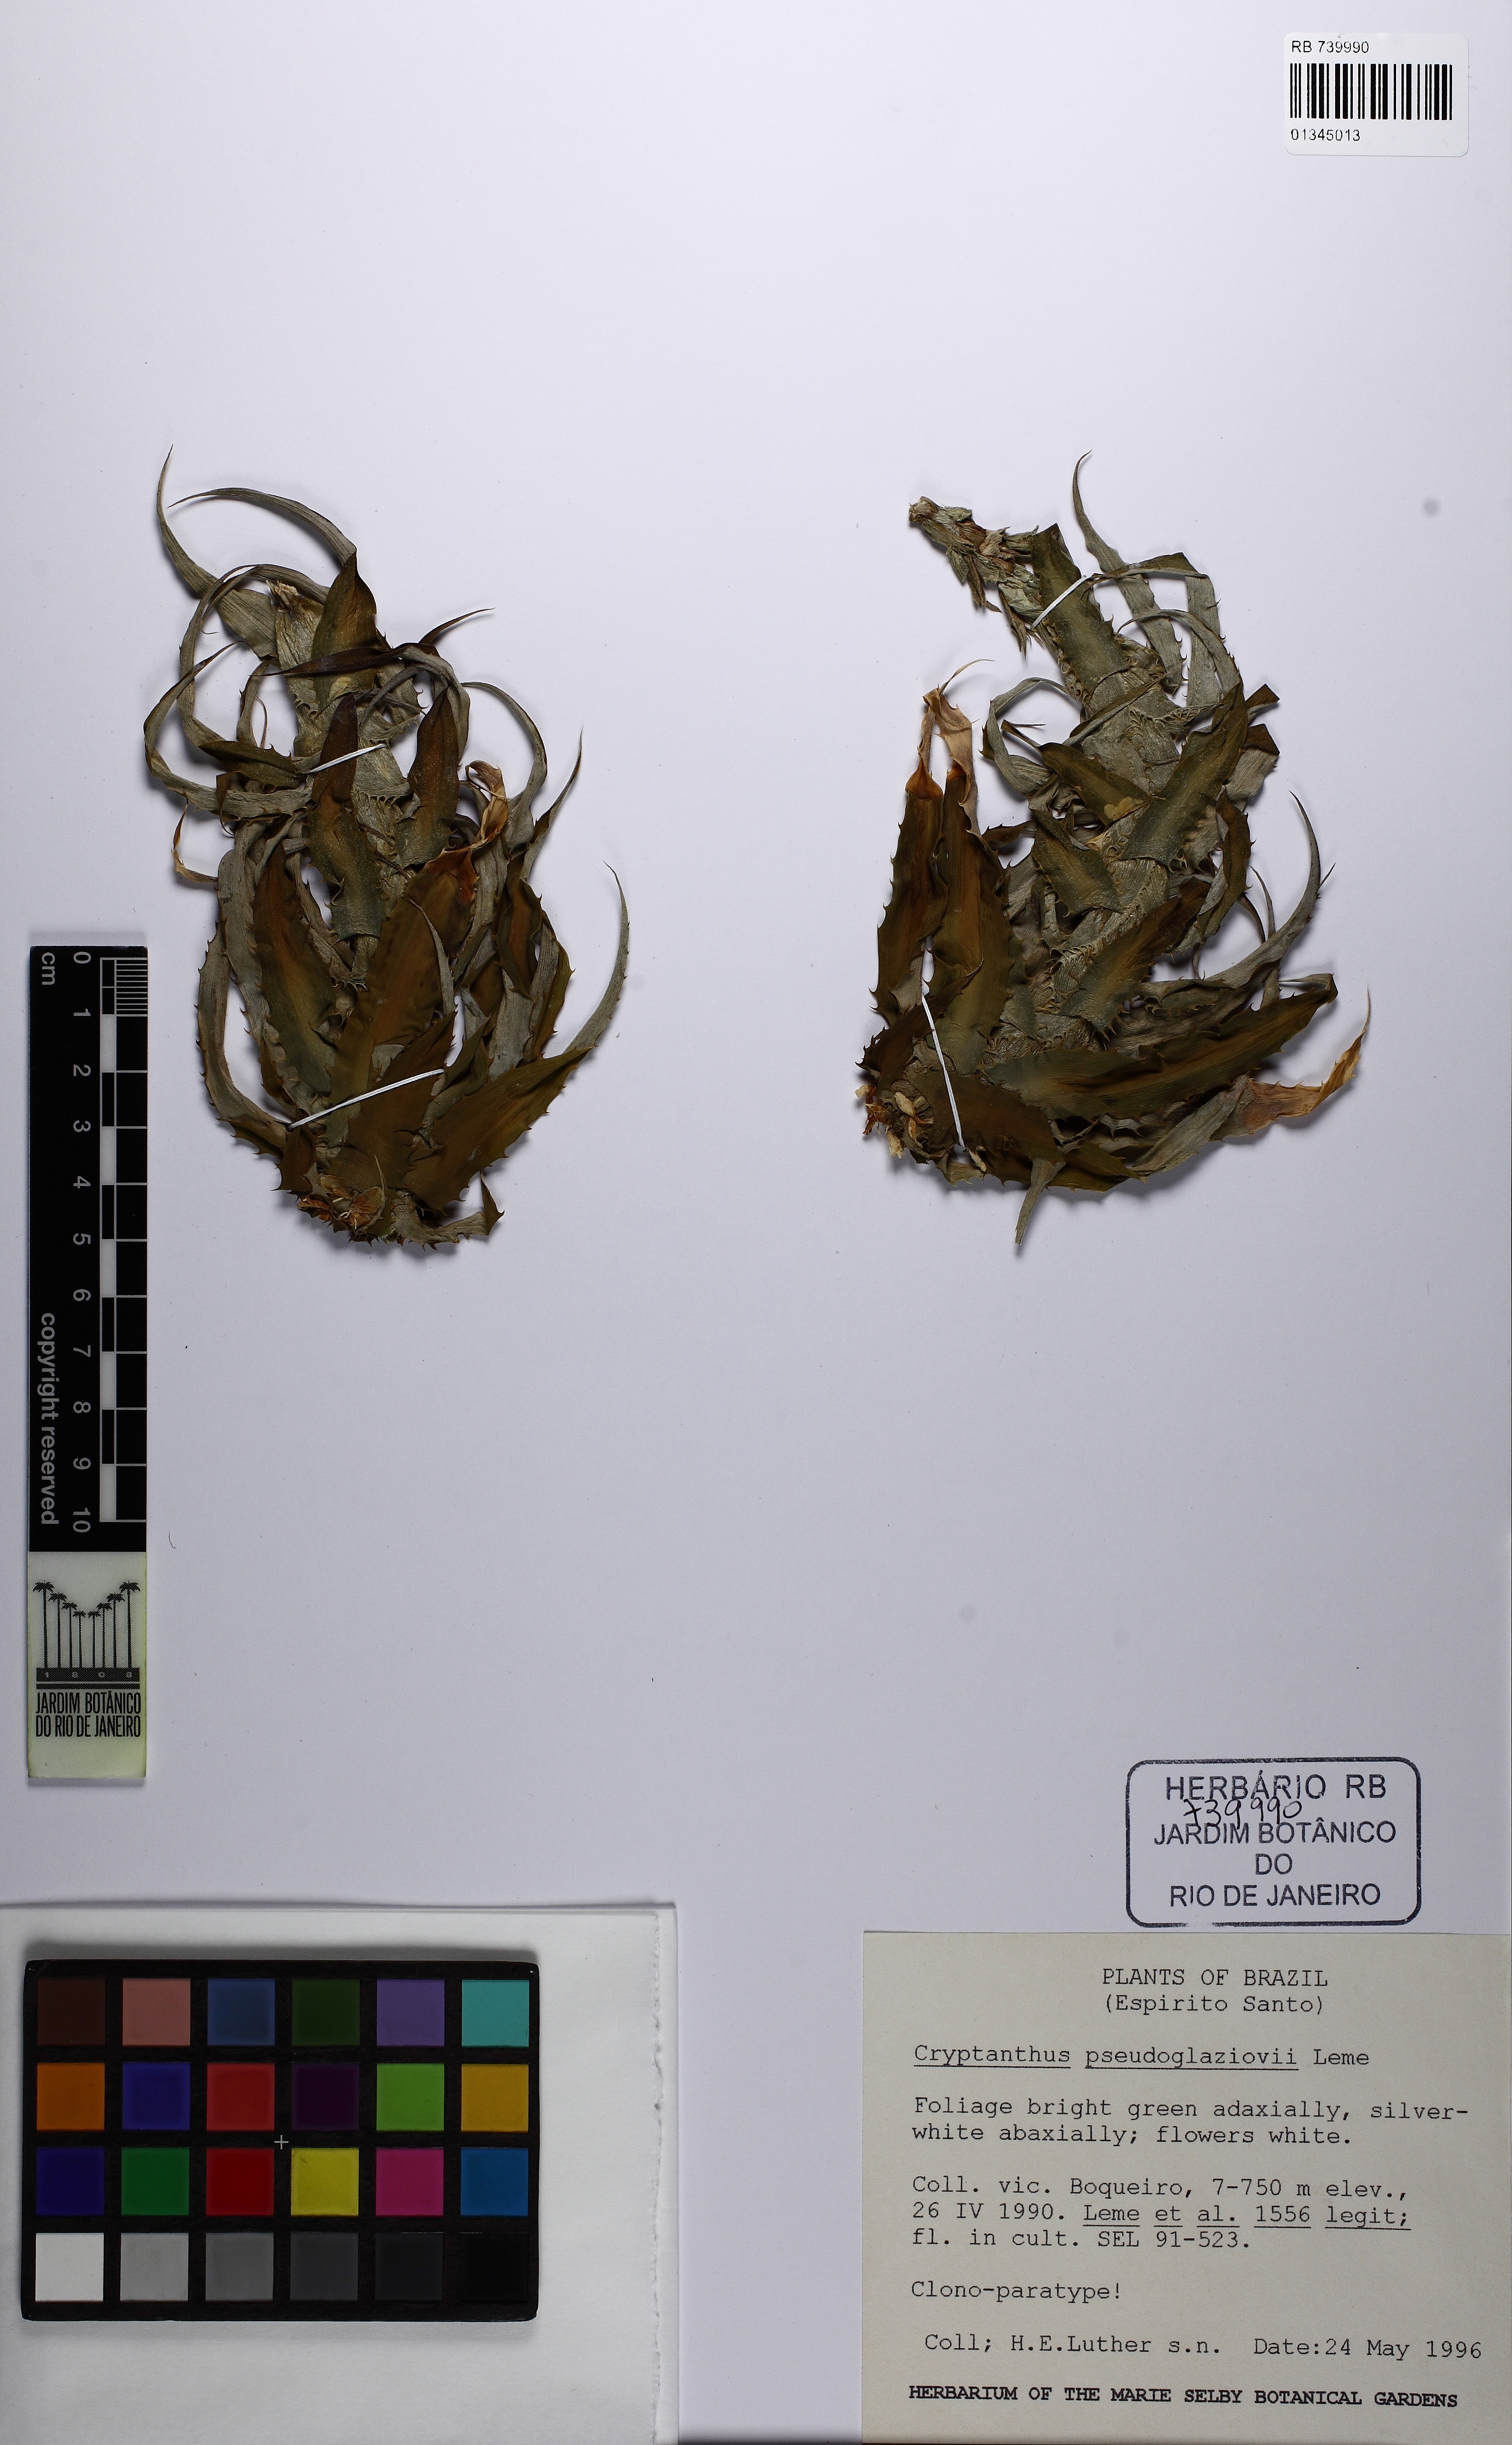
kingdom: Plantae
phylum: Tracheophyta
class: Liliopsida
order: Poales
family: Bromeliaceae
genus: Rokautskyia
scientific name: Rokautskyia pseudoglaziovii
